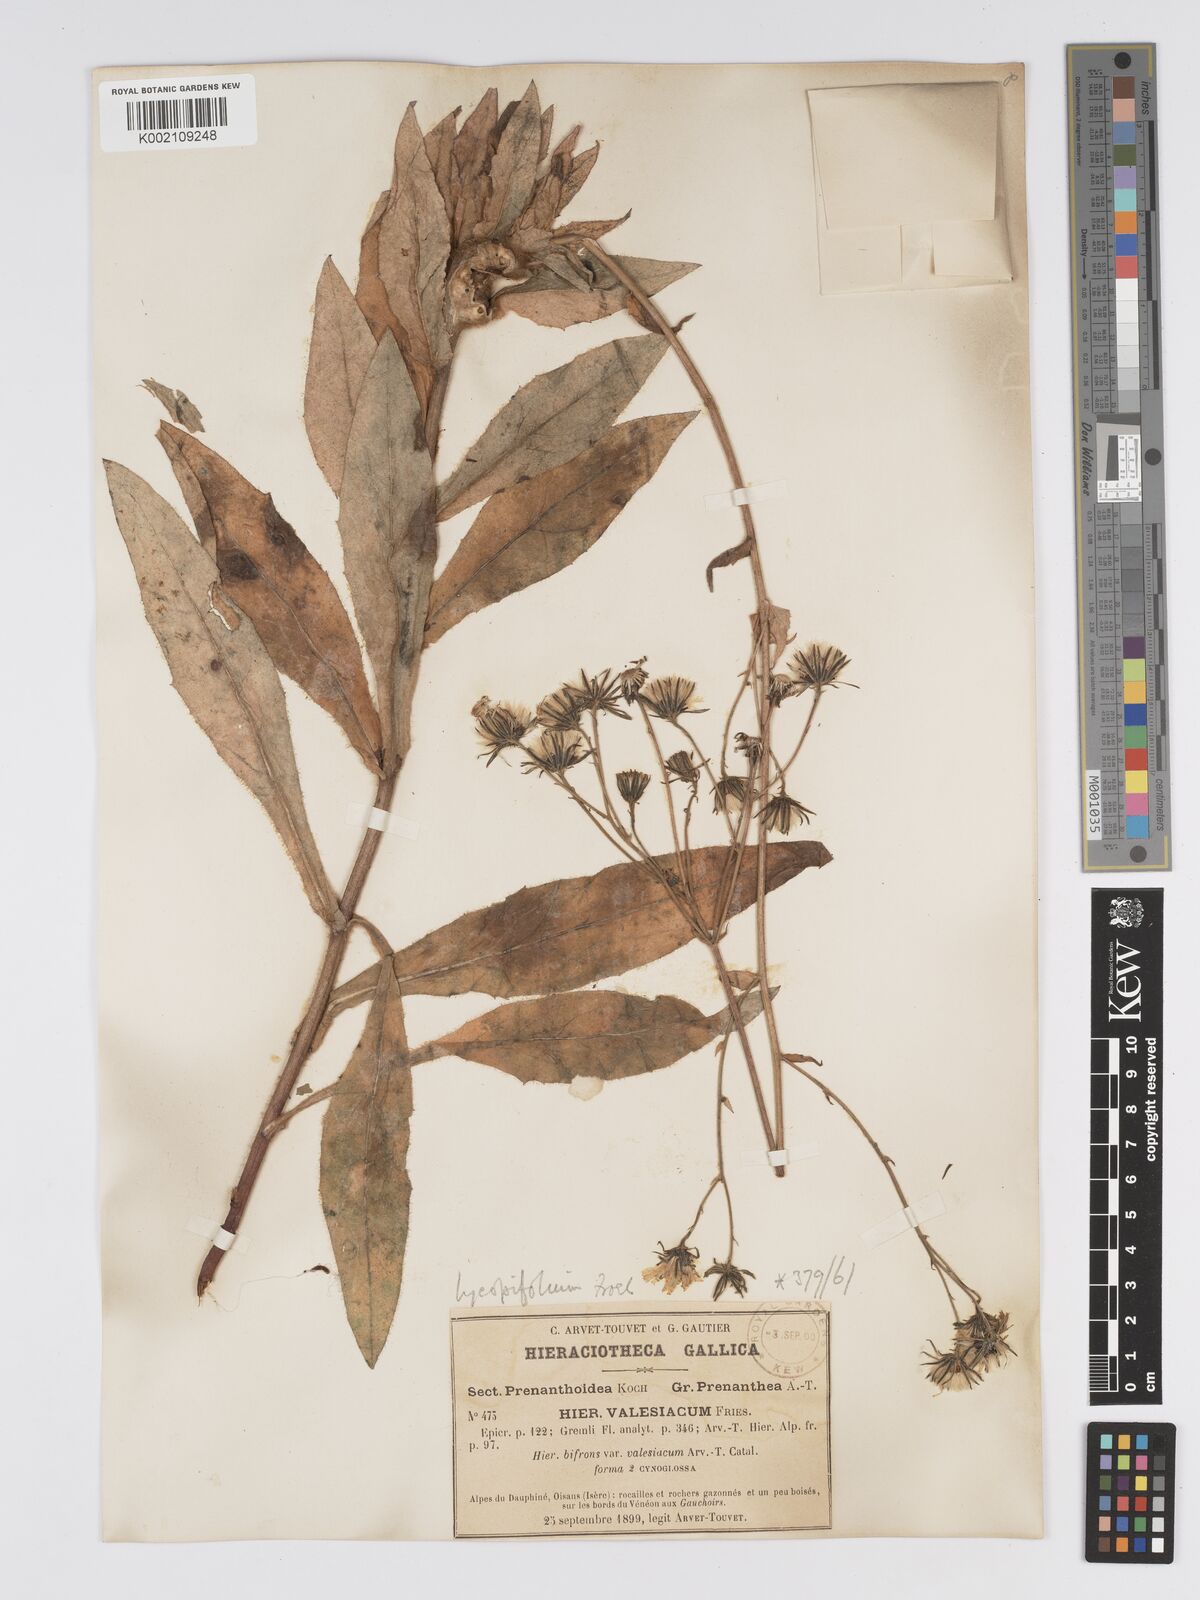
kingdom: Plantae
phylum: Tracheophyta
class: Magnoliopsida
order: Asterales
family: Asteraceae
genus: Hieracium
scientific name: Hieracium lycopifolium
